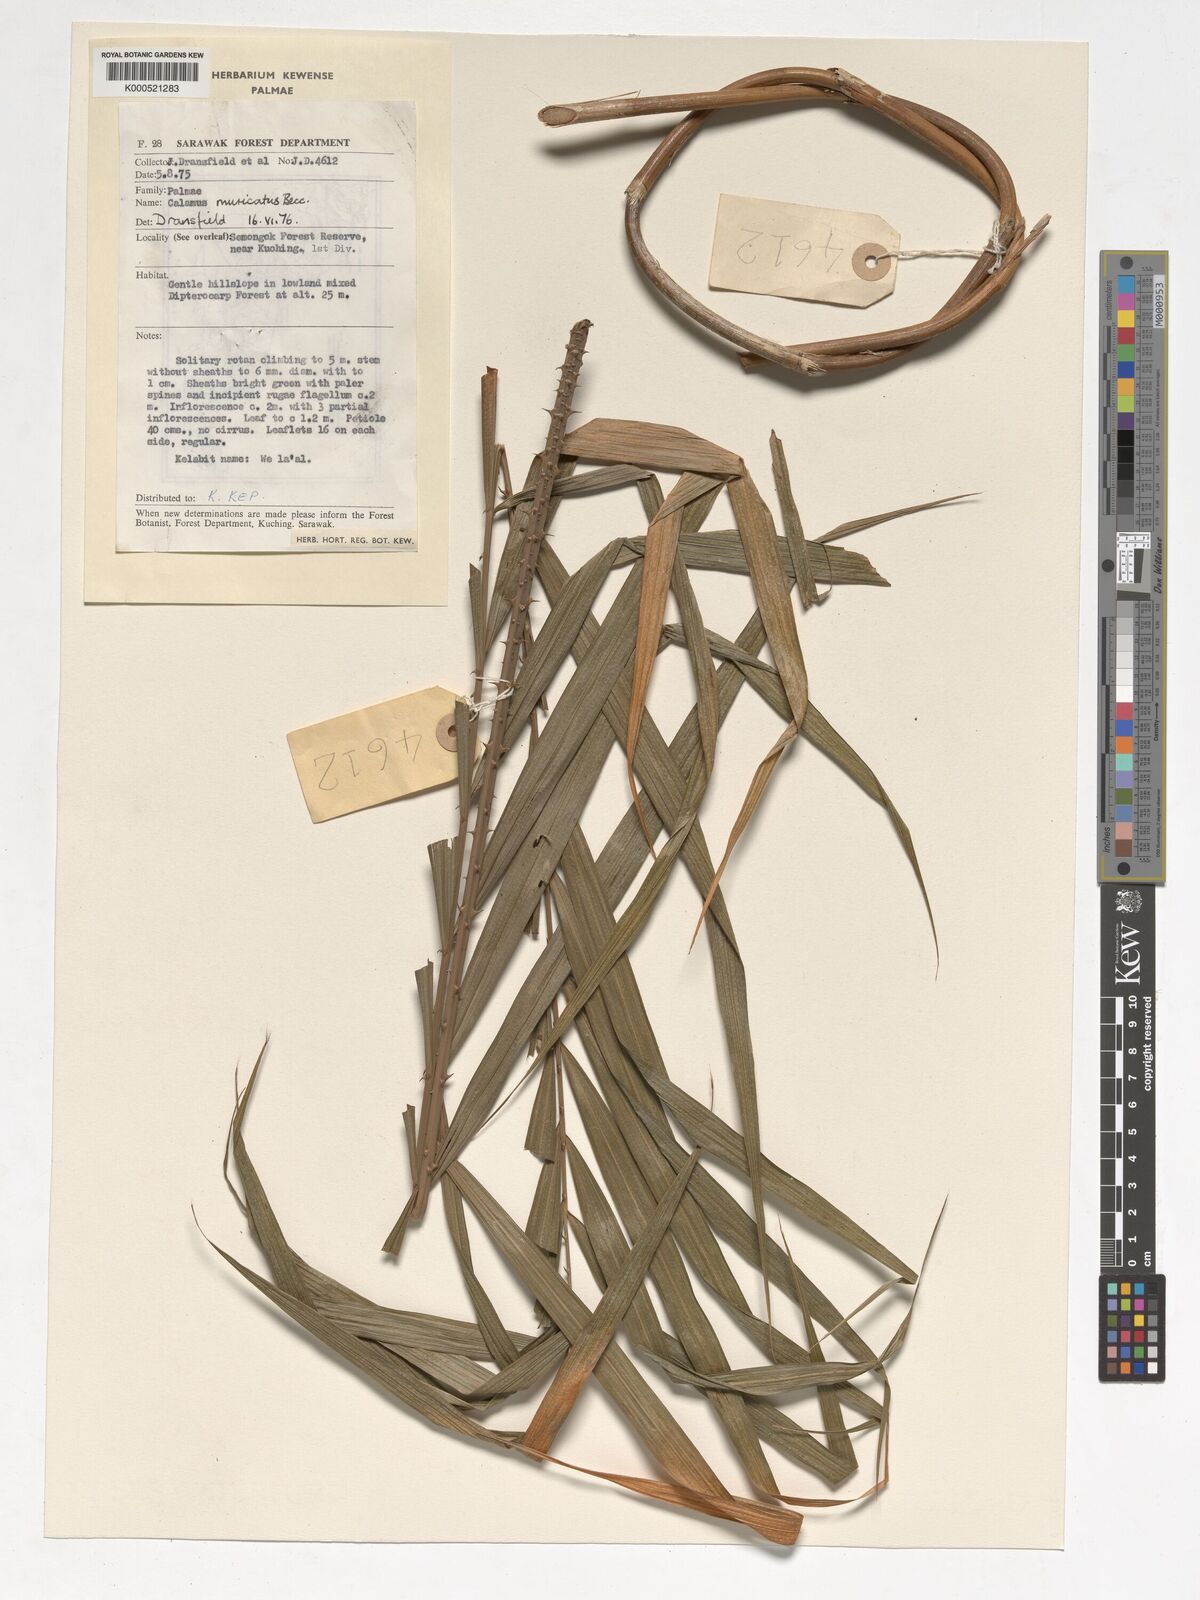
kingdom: Plantae
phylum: Tracheophyta
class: Liliopsida
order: Arecales
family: Arecaceae
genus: Calamus
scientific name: Calamus muricatus
